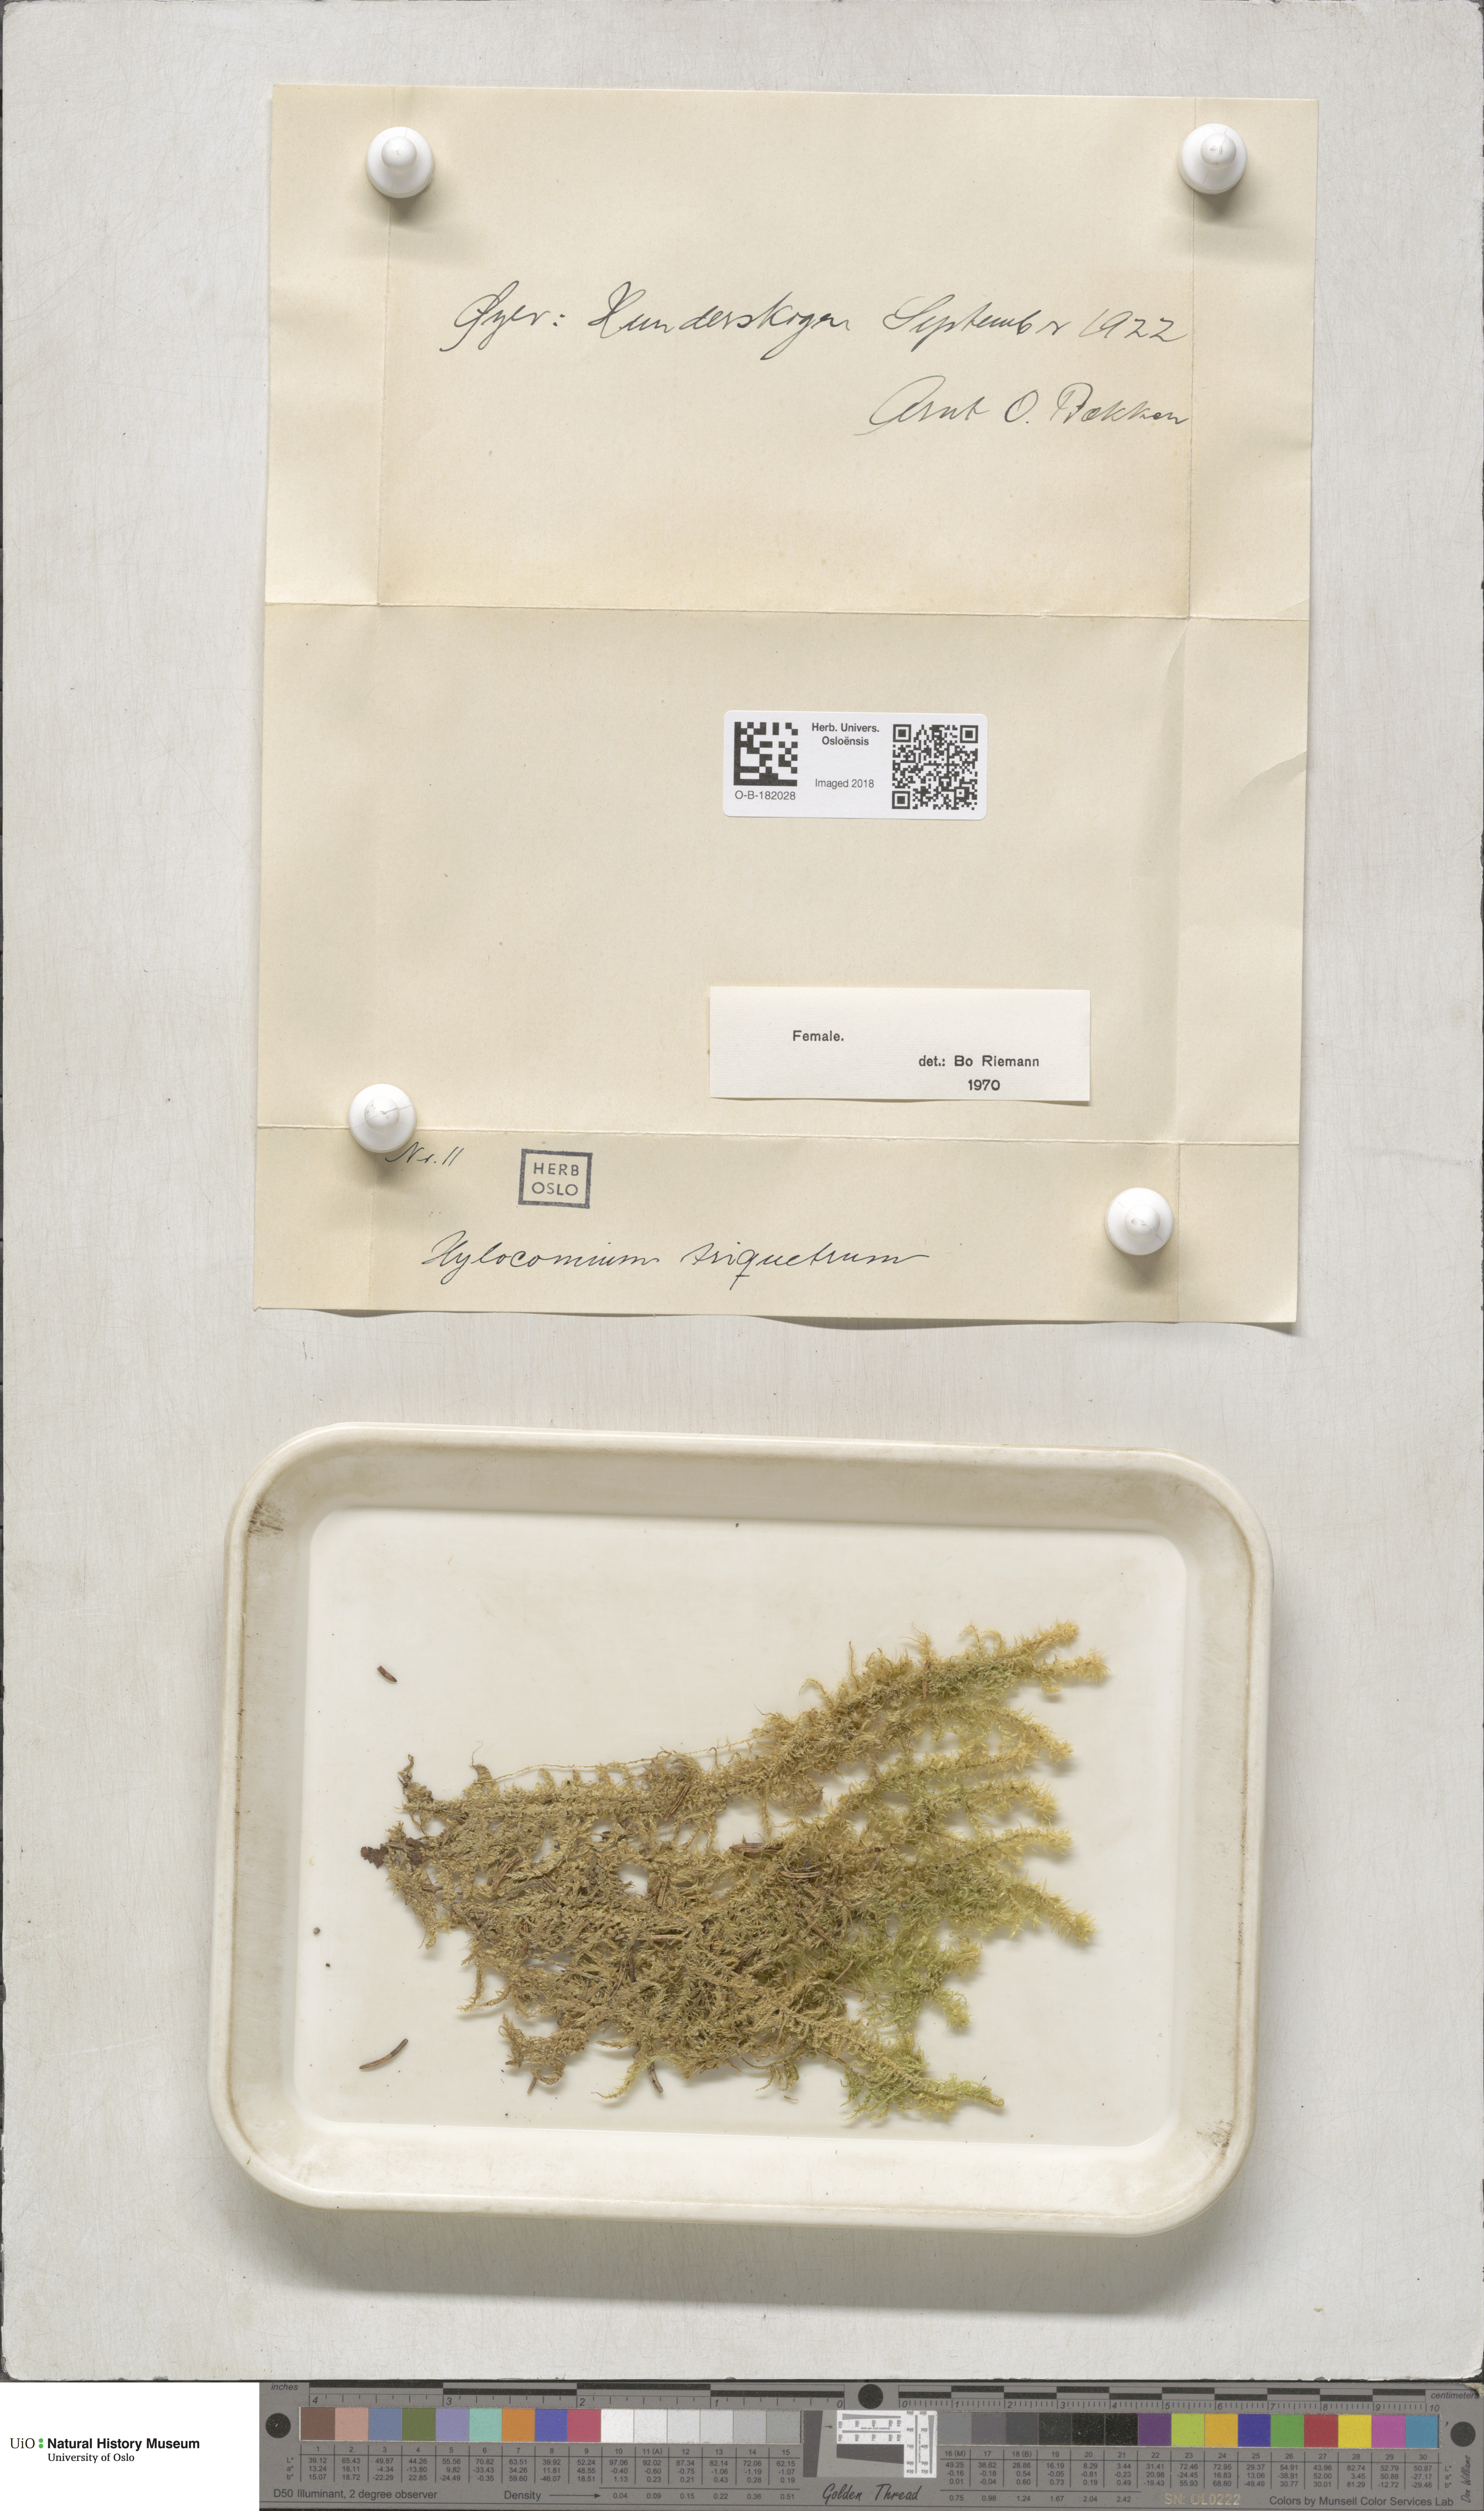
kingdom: Plantae
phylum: Bryophyta
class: Bryopsida
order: Hypnales
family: Hylocomiaceae
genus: Hylocomiadelphus
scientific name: Hylocomiadelphus triquetrus
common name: Rough goose neck moss
